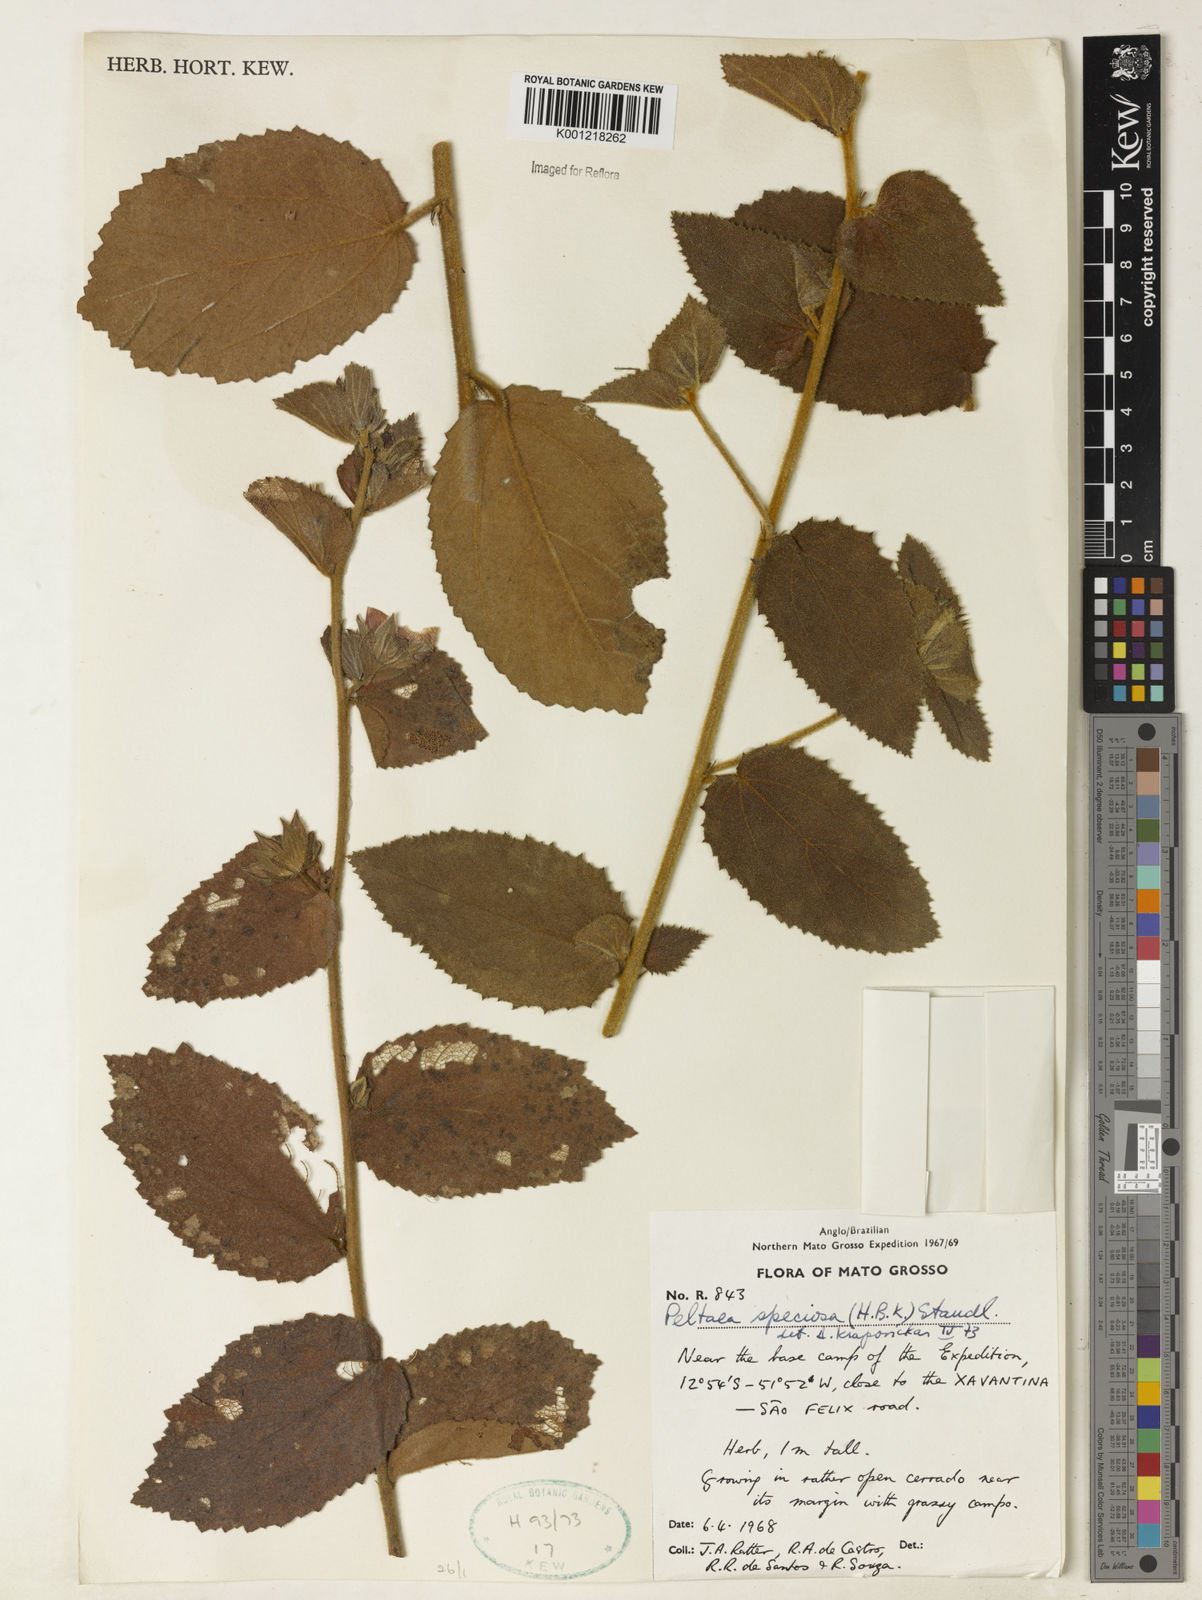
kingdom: Plantae
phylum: Tracheophyta
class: Magnoliopsida
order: Malvales
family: Malvaceae
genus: Peltaea
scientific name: Peltaea speciosa
